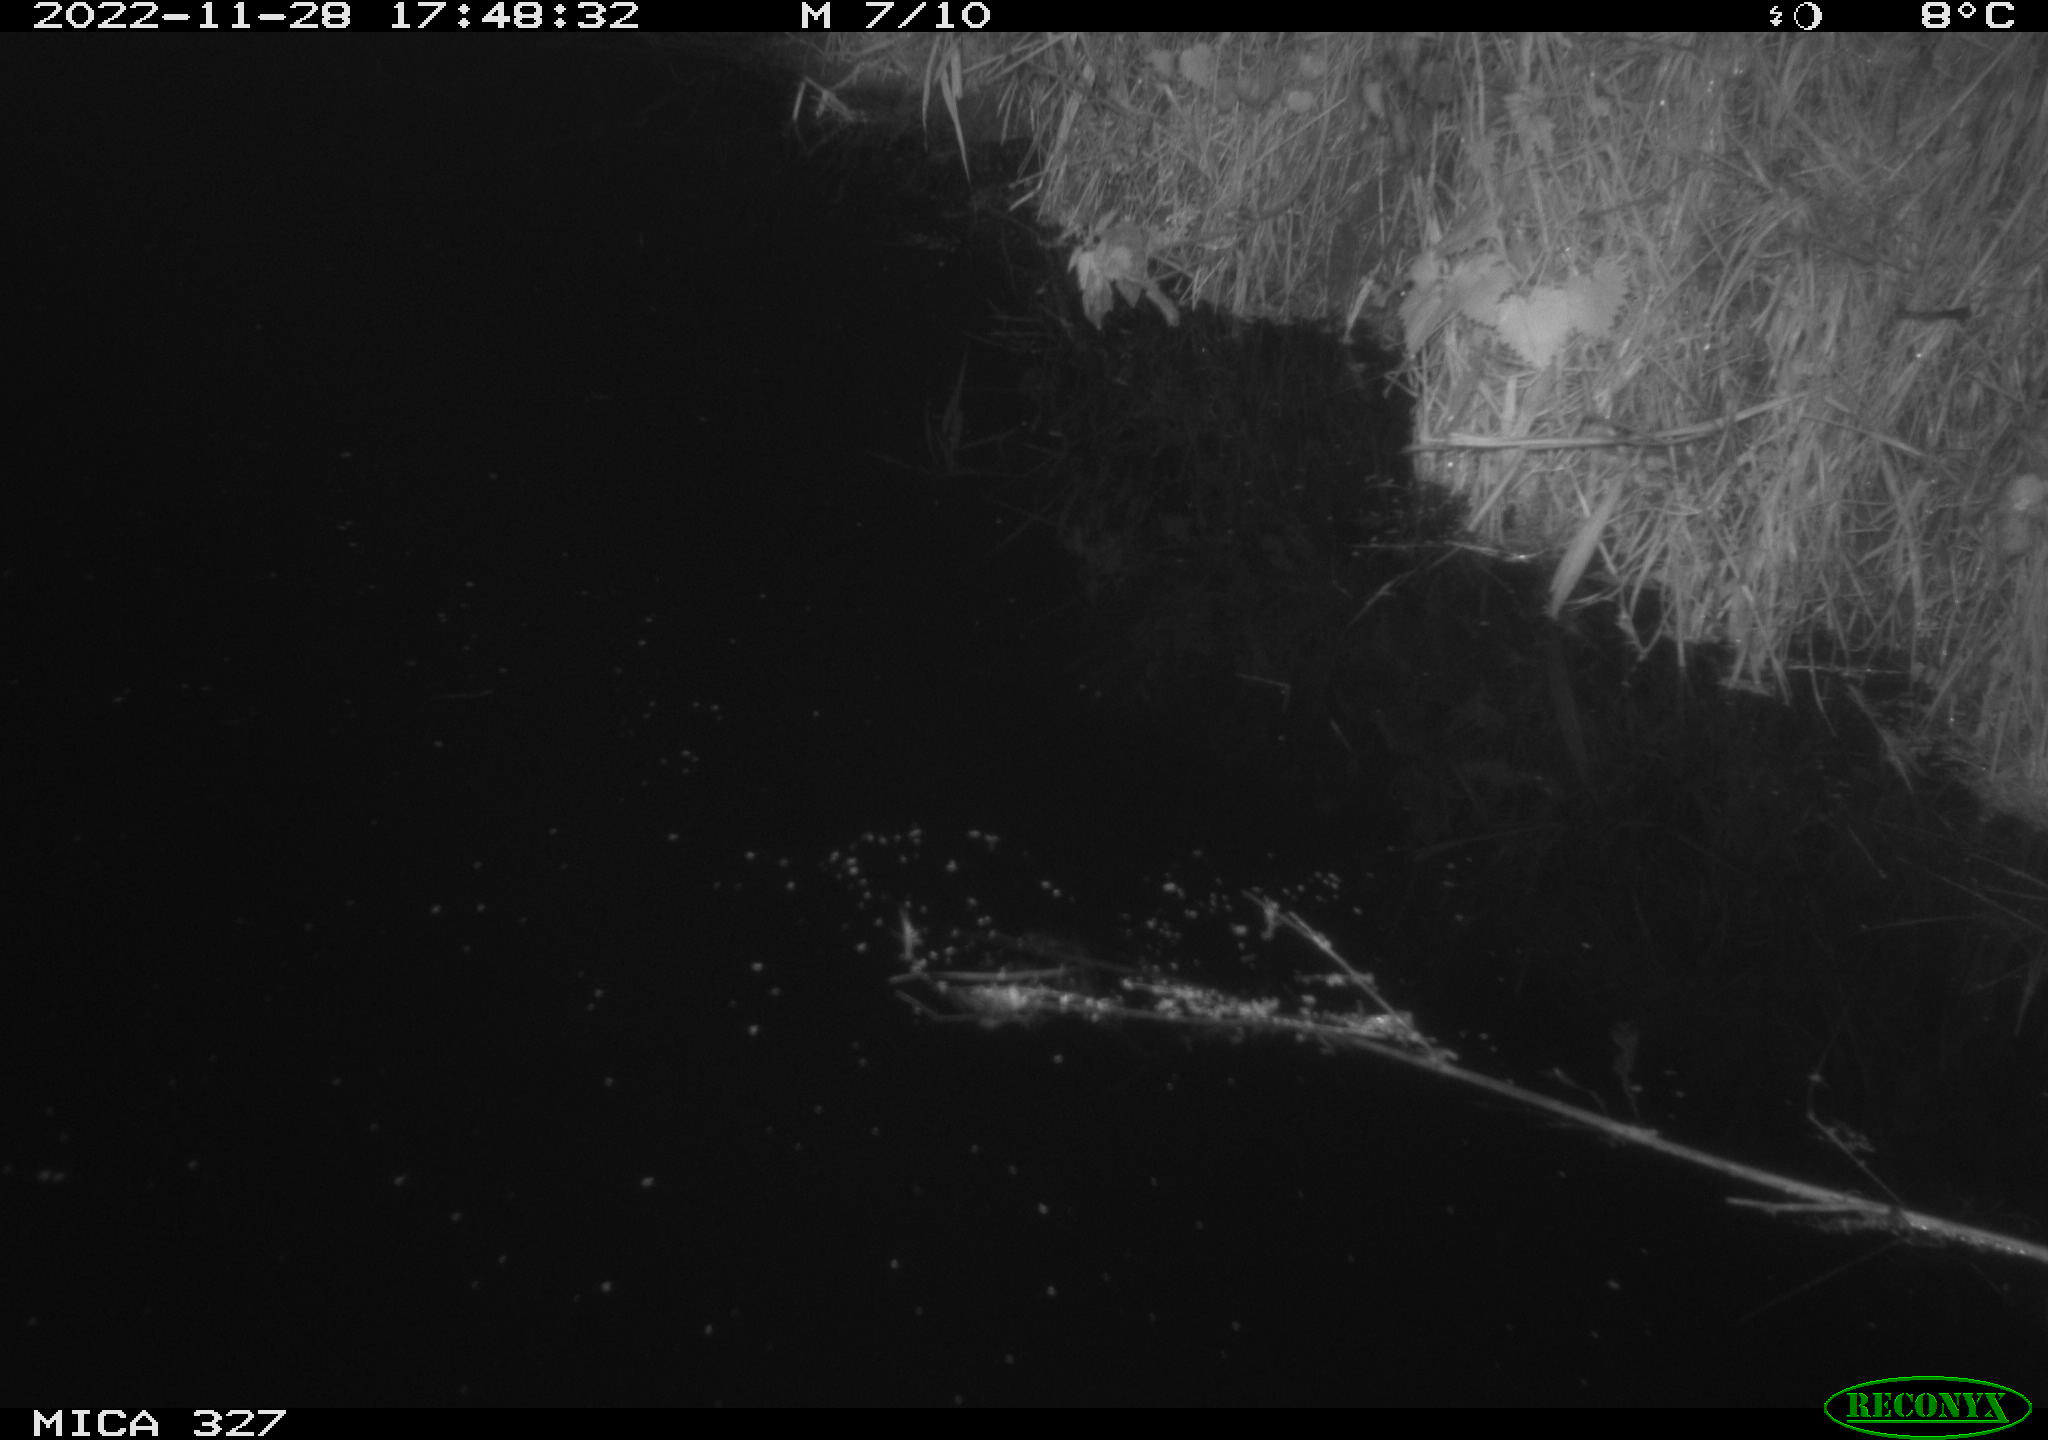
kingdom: Animalia
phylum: Chordata
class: Aves
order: Gruiformes
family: Rallidae
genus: Gallinula
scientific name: Gallinula chloropus
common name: Common moorhen
